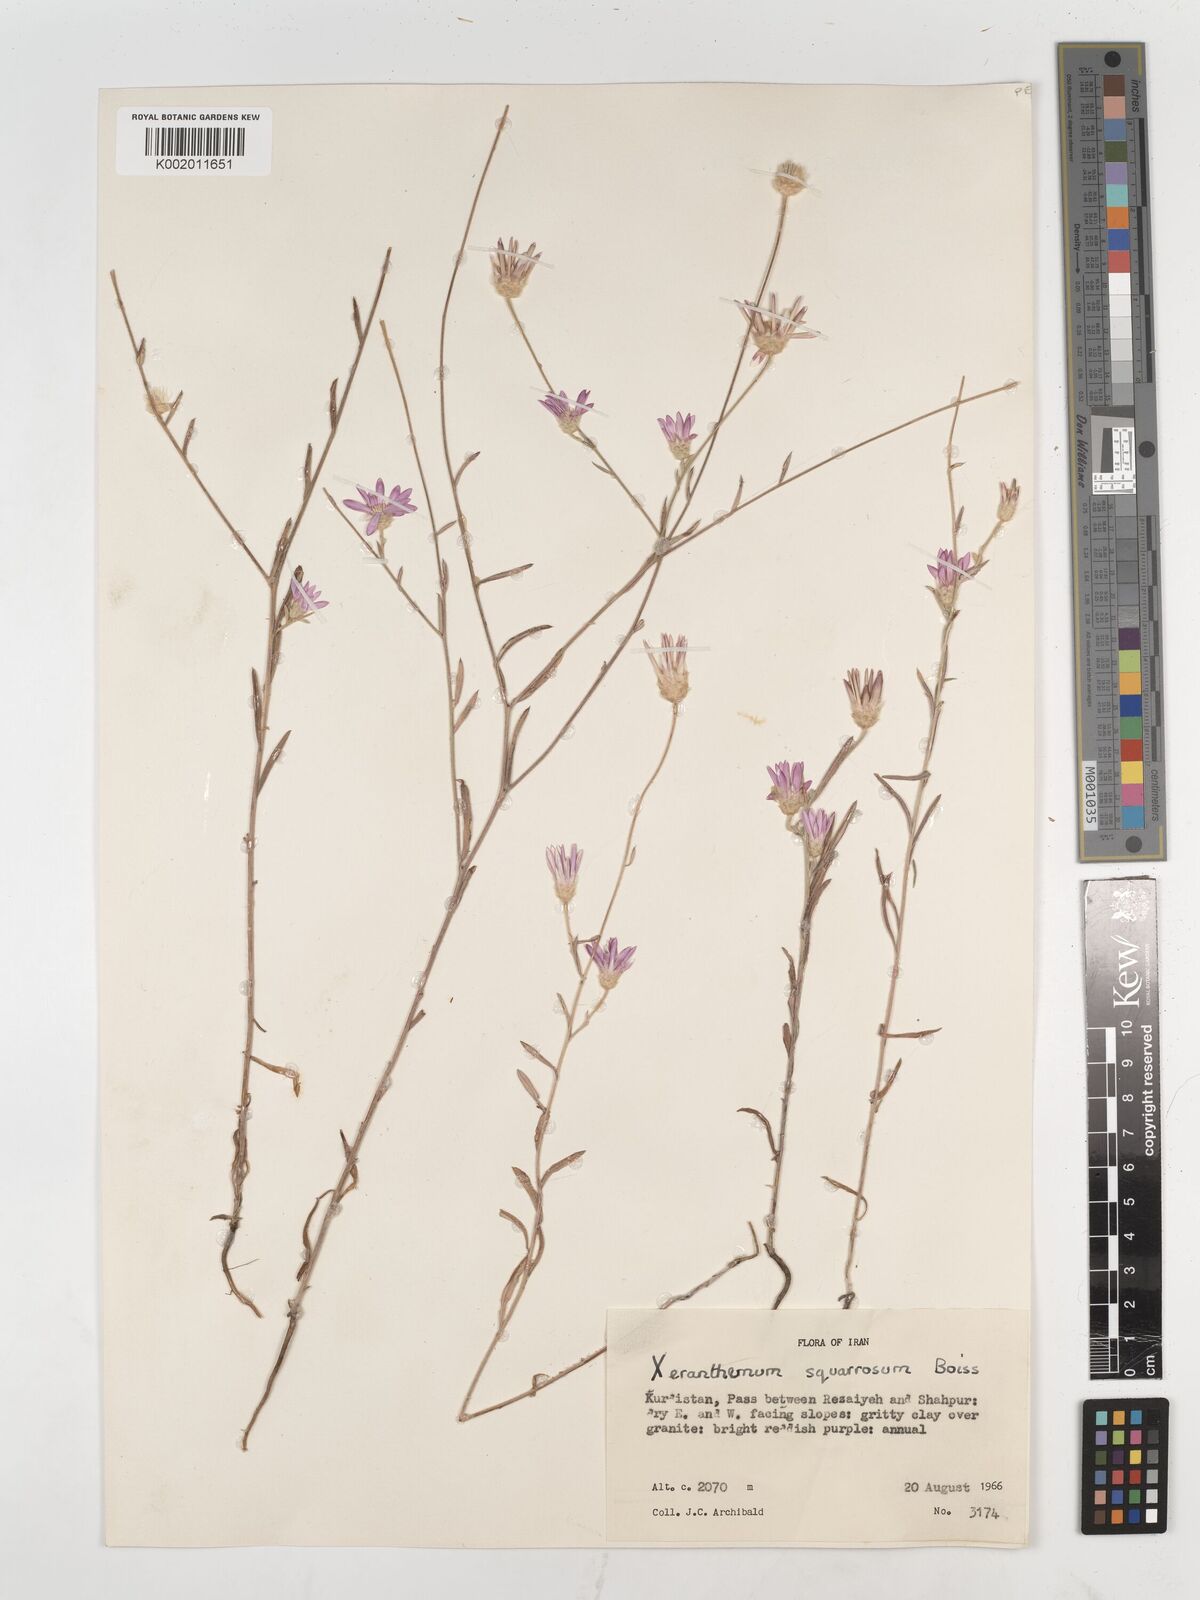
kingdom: Plantae
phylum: Tracheophyta
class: Magnoliopsida
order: Asterales
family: Asteraceae
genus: Xeranthemum
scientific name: Xeranthemum squarrosum
